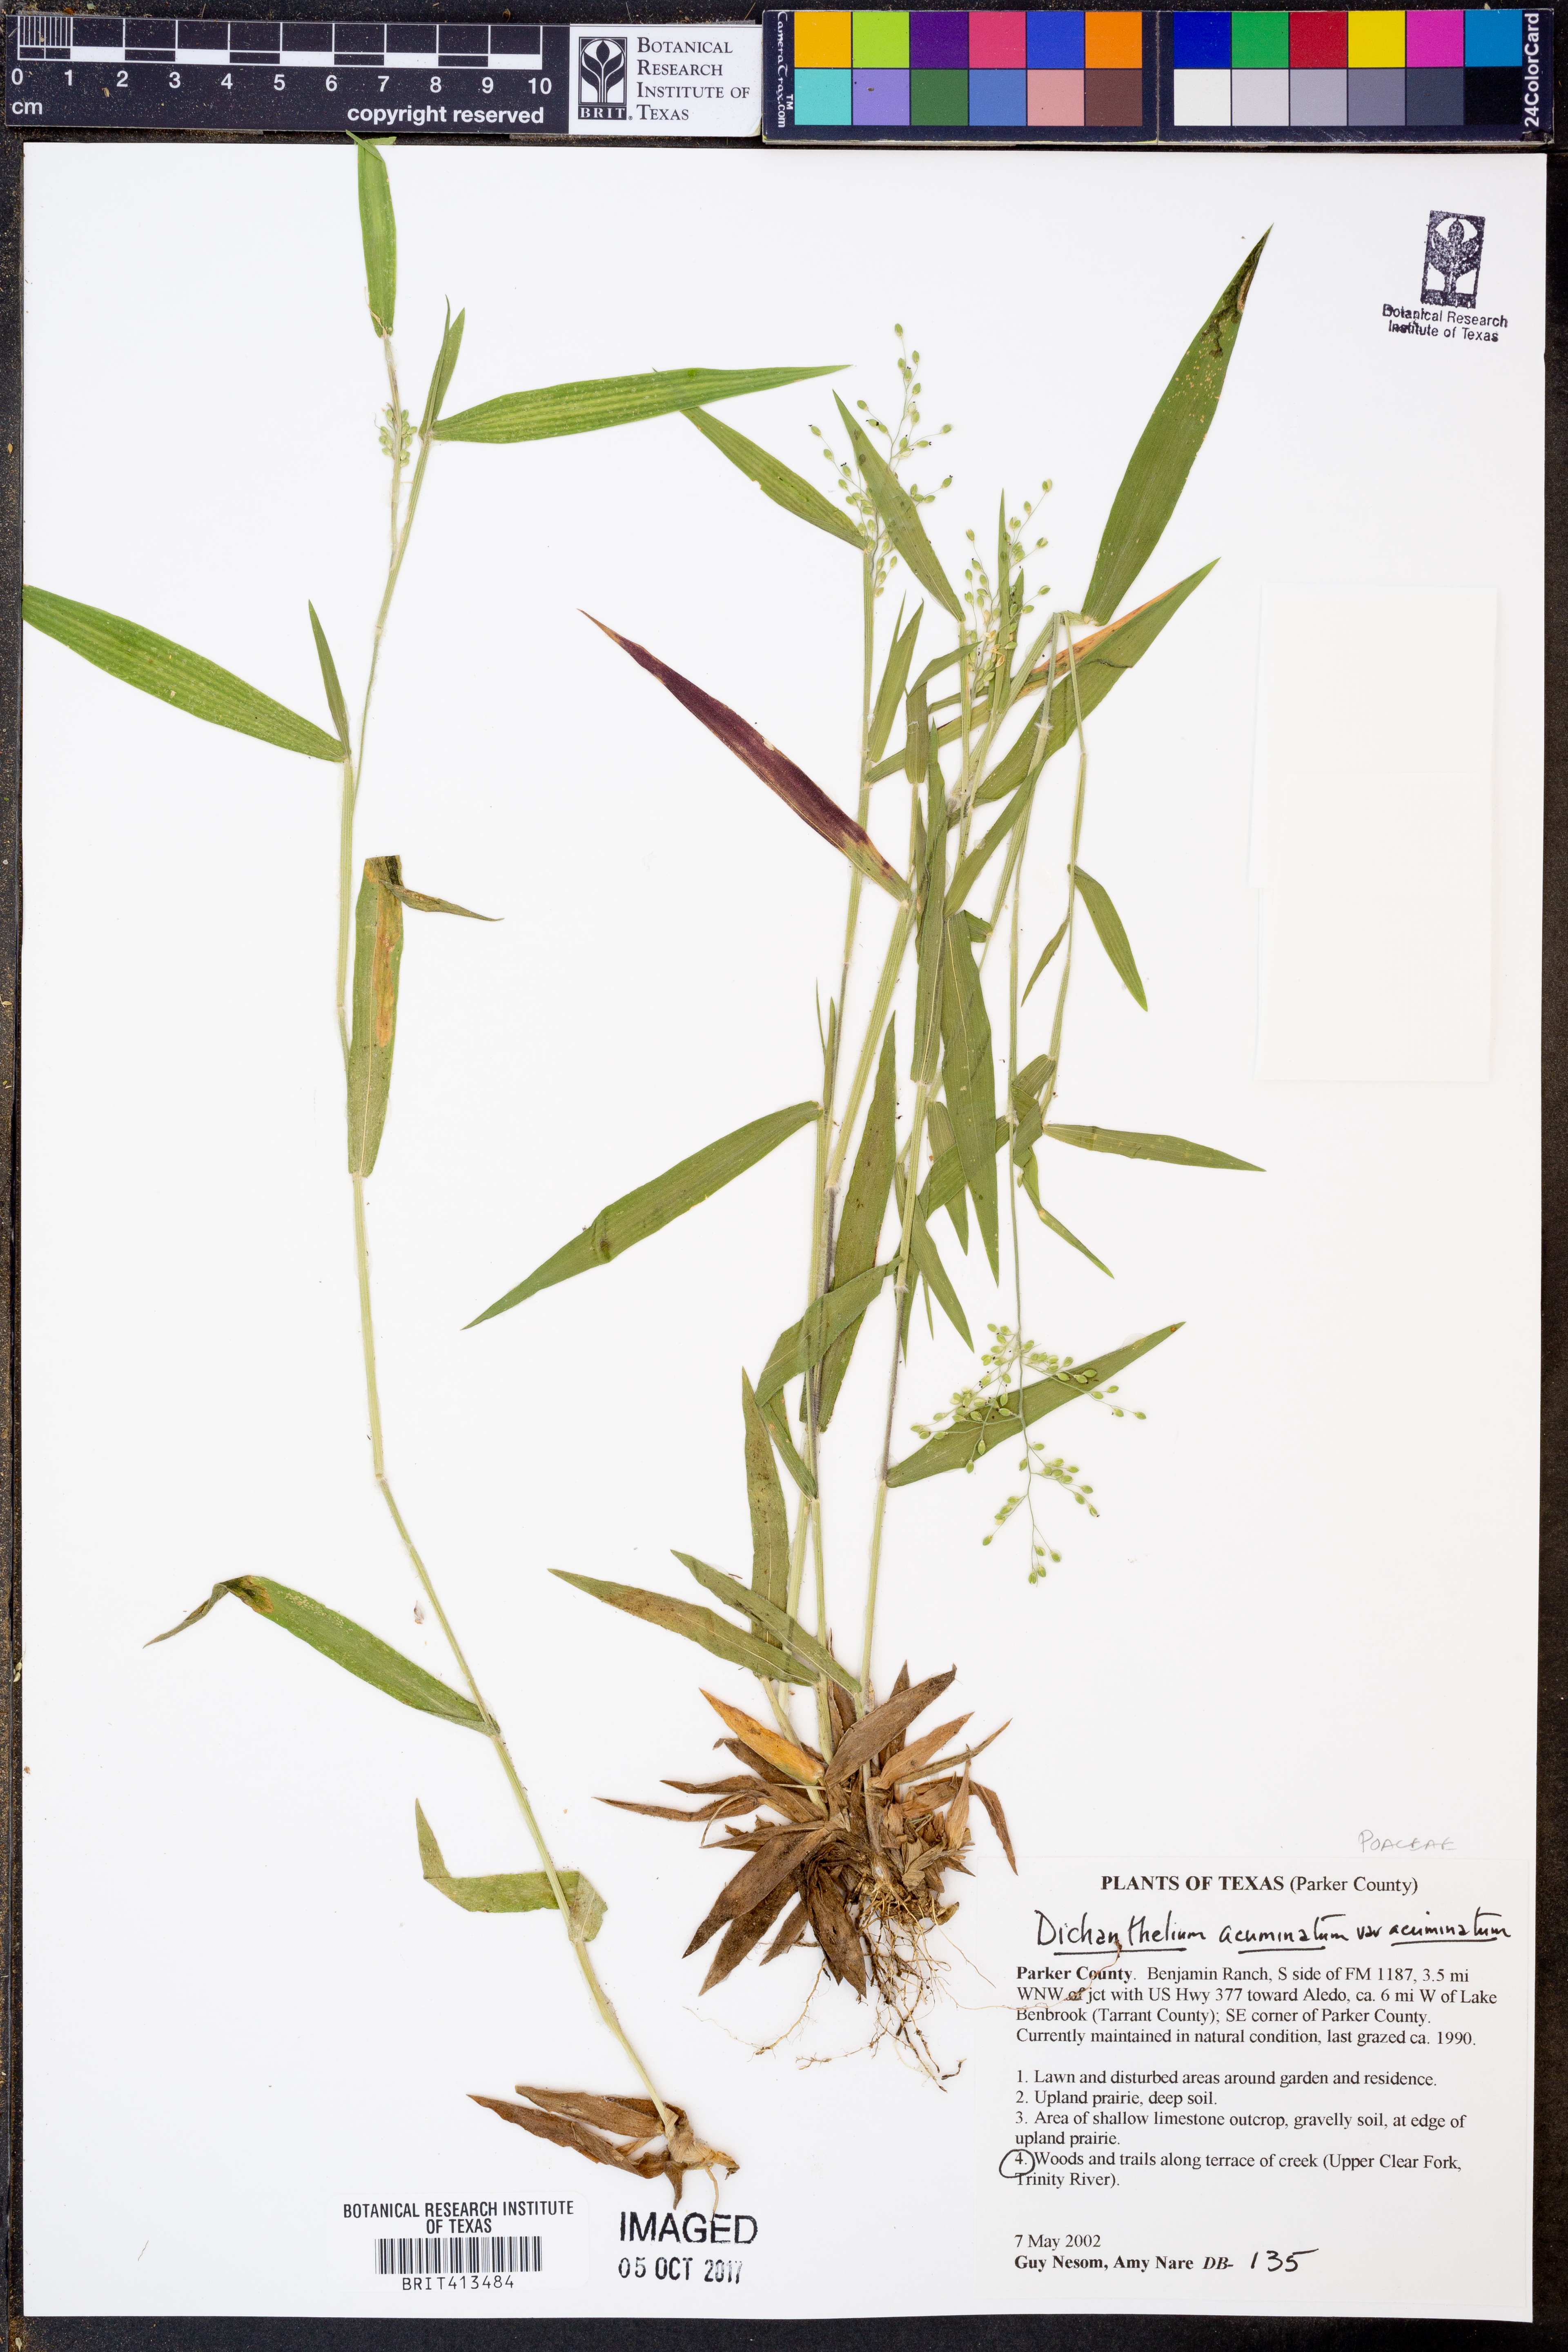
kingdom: Plantae
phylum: Tracheophyta
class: Liliopsida
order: Poales
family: Poaceae
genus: Dichanthelium
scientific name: Dichanthelium acuminatum
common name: Hairy panic grass
